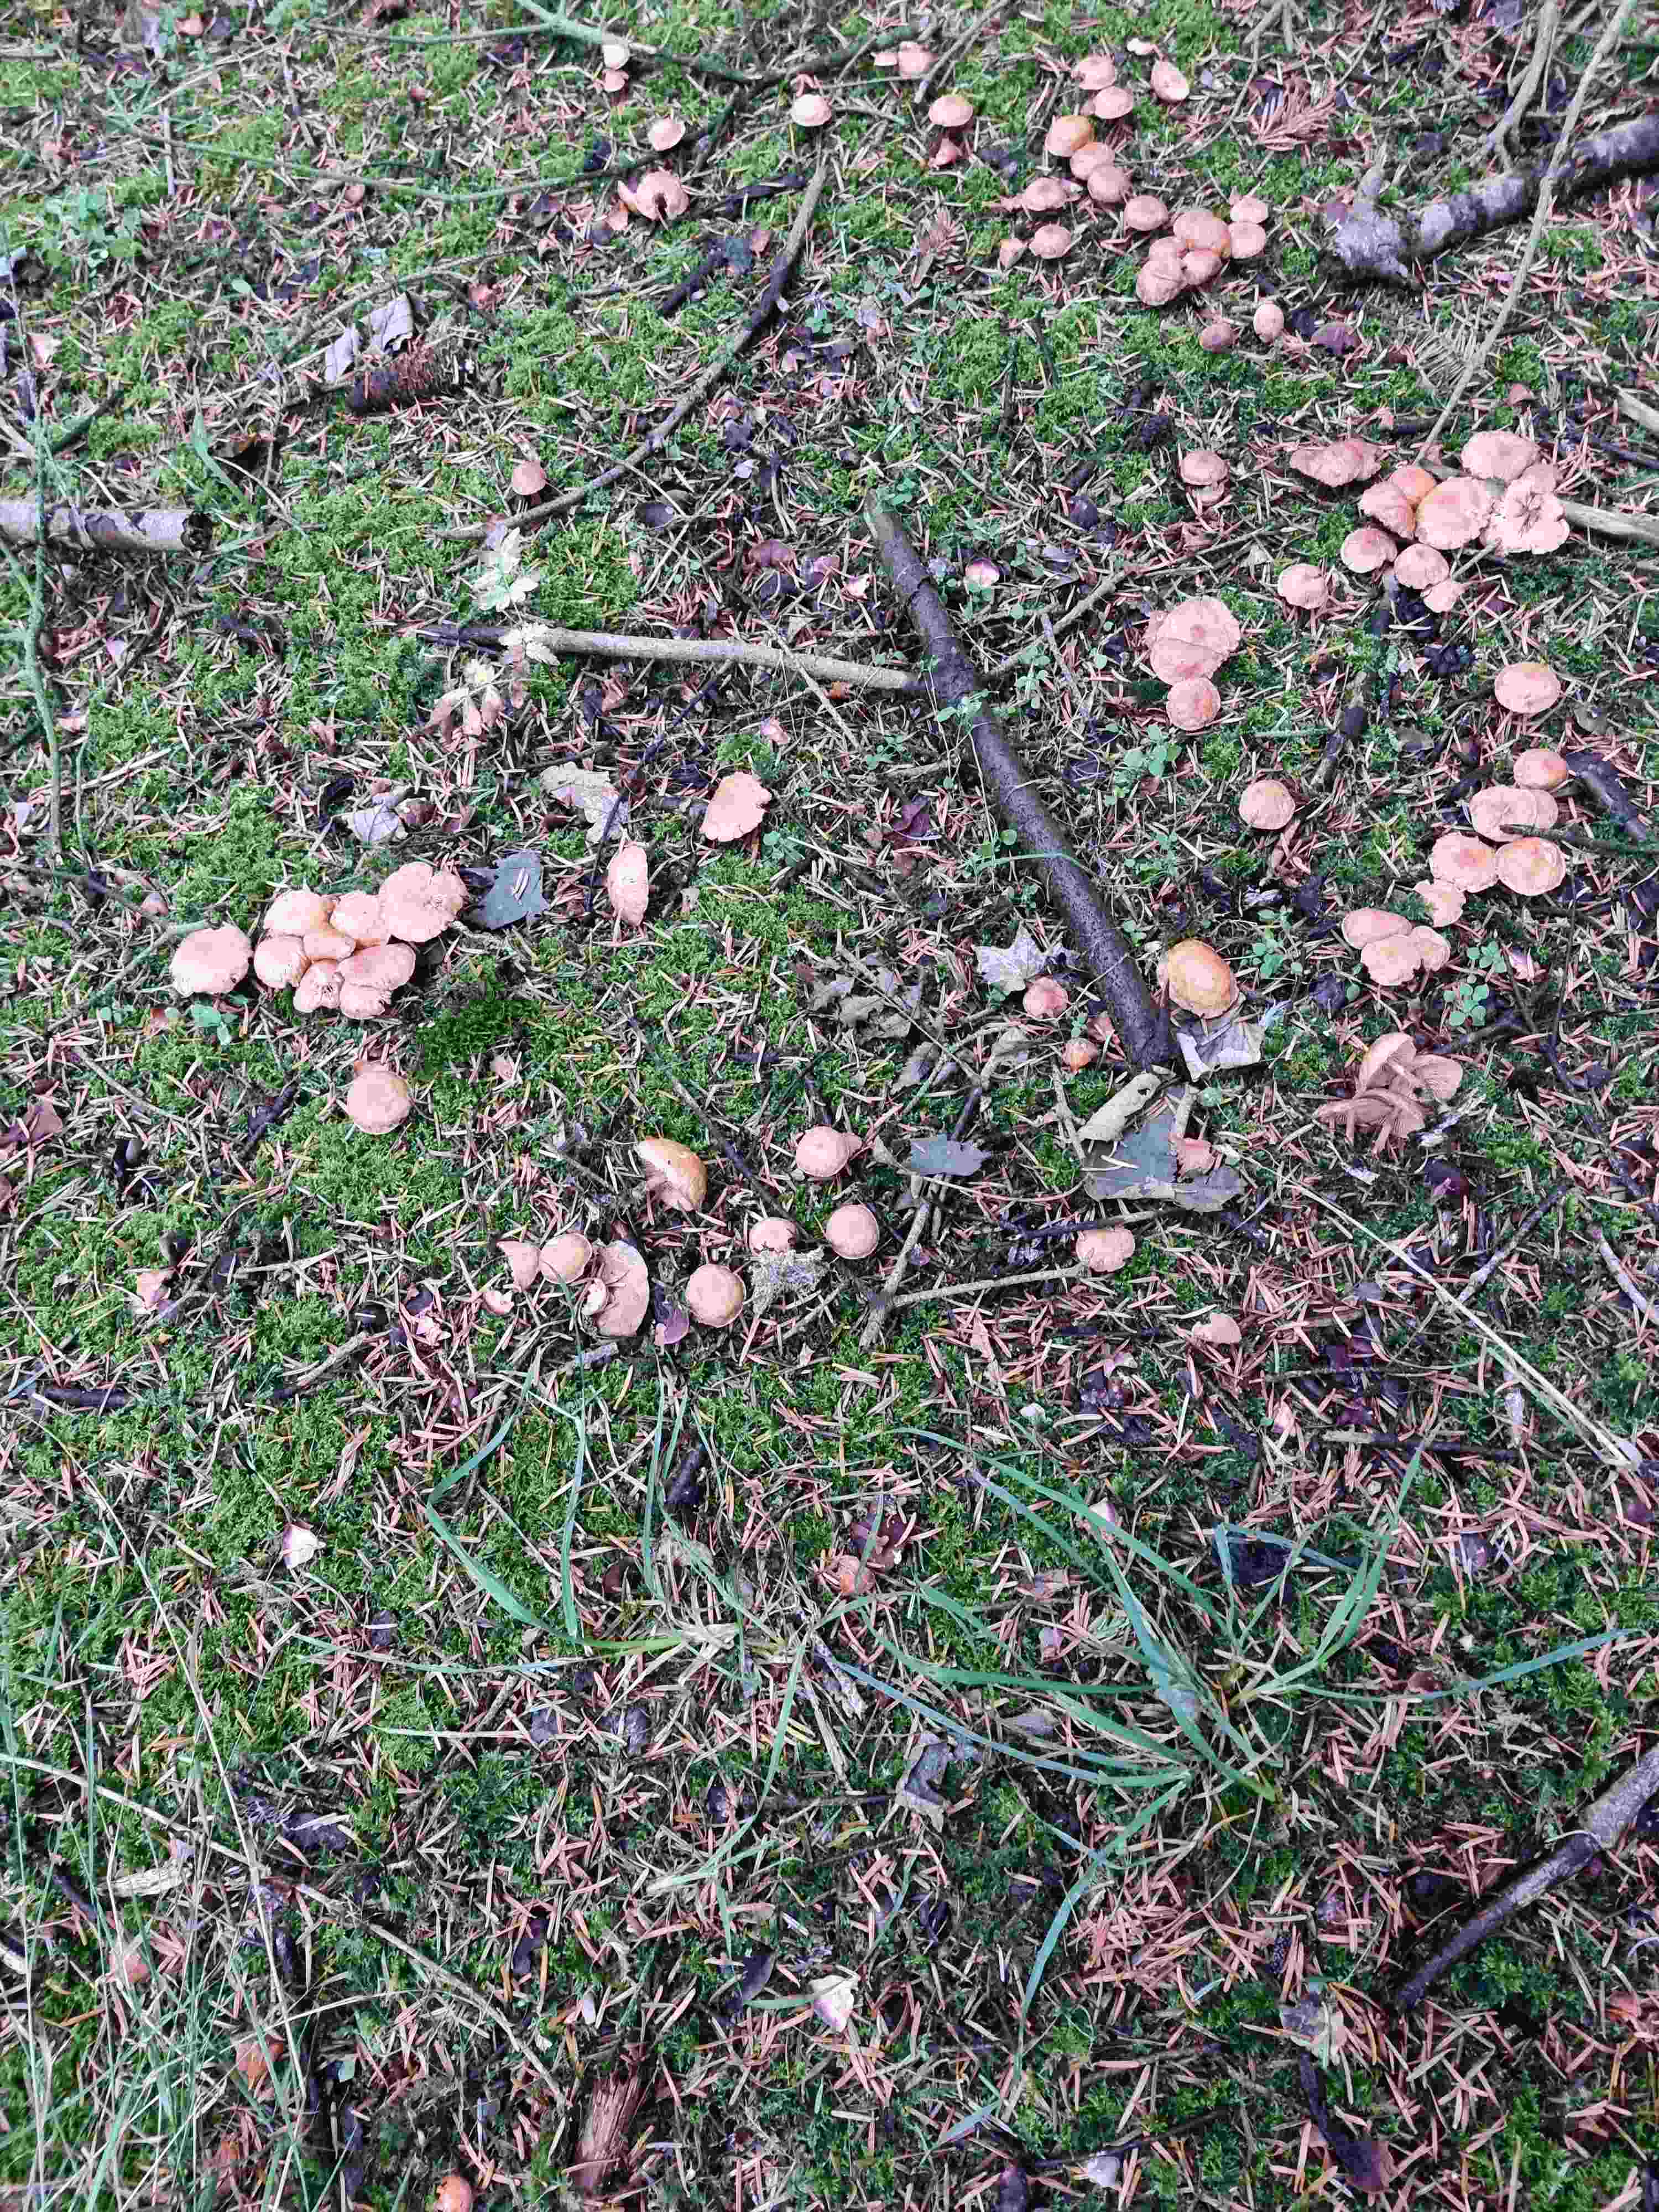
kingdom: Fungi
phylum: Basidiomycota
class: Agaricomycetes
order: Agaricales
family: Omphalotaceae
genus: Collybiopsis
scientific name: Collybiopsis peronata
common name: bestøvlet fladhat
